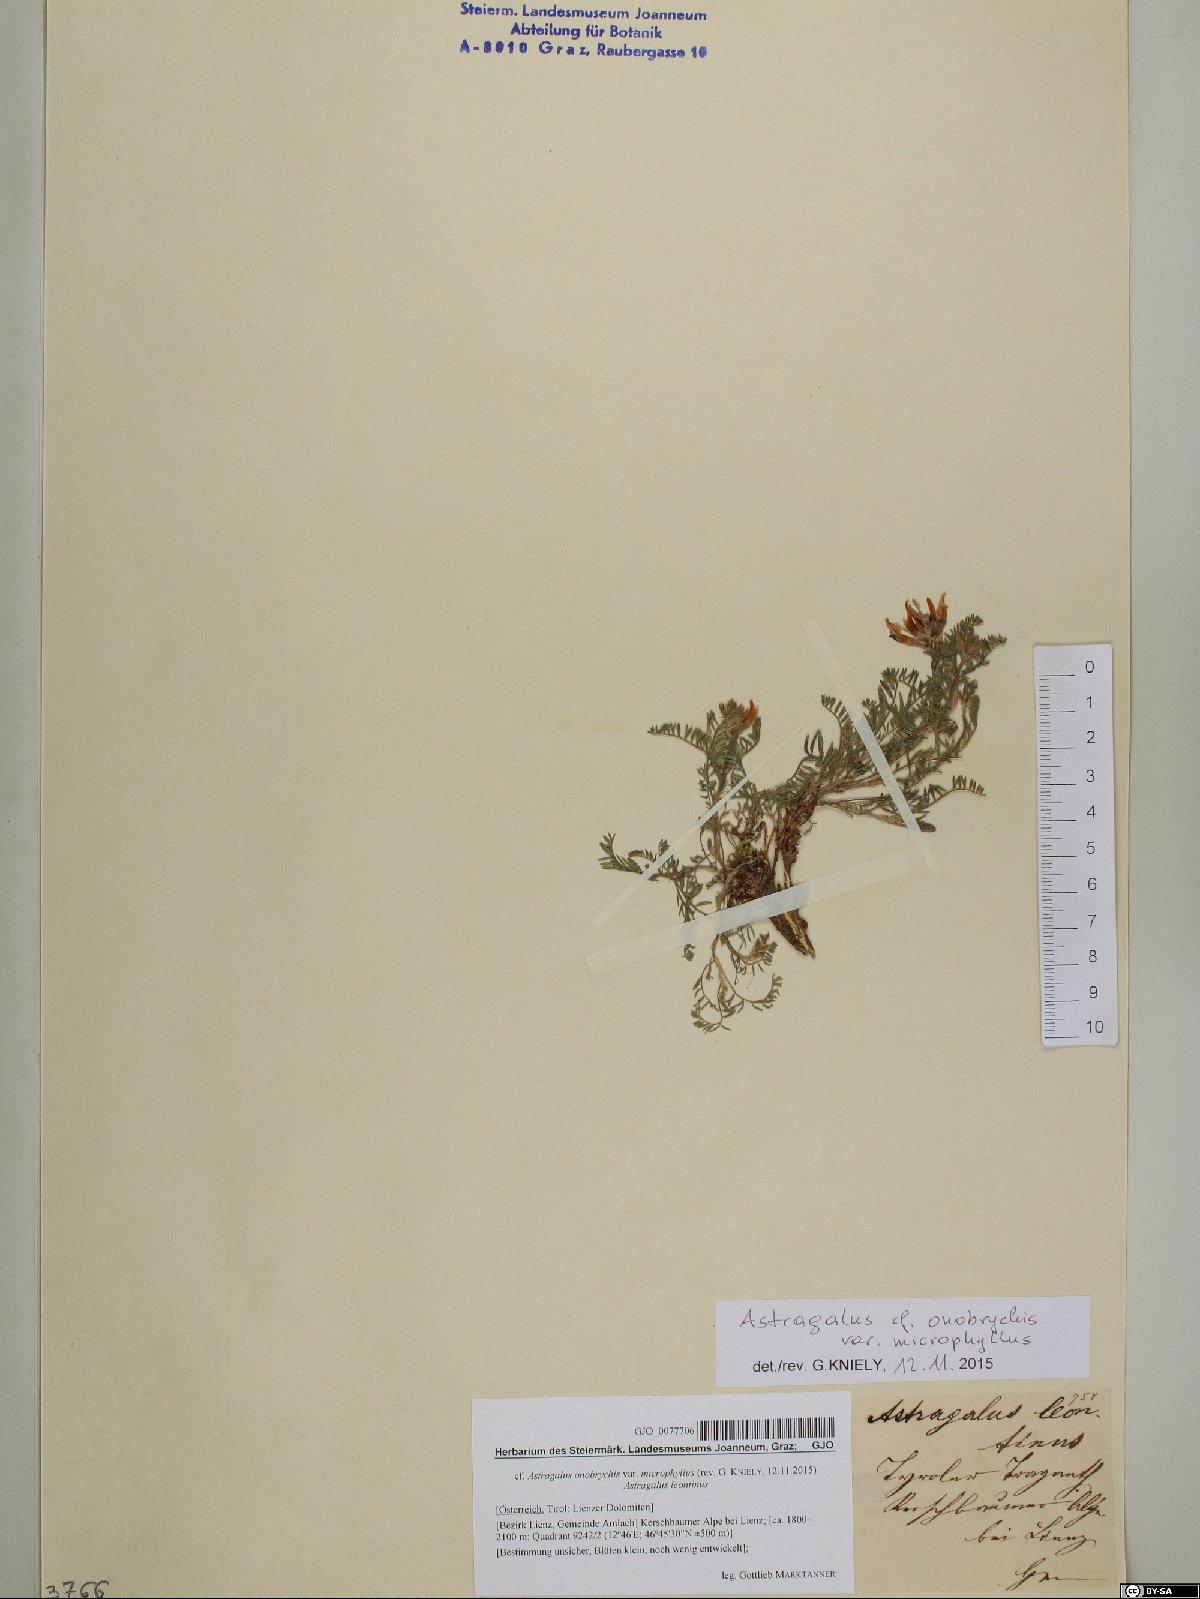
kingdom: Plantae
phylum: Tracheophyta
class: Magnoliopsida
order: Fabales
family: Fabaceae
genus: Astragalus
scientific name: Astragalus onobrychis
